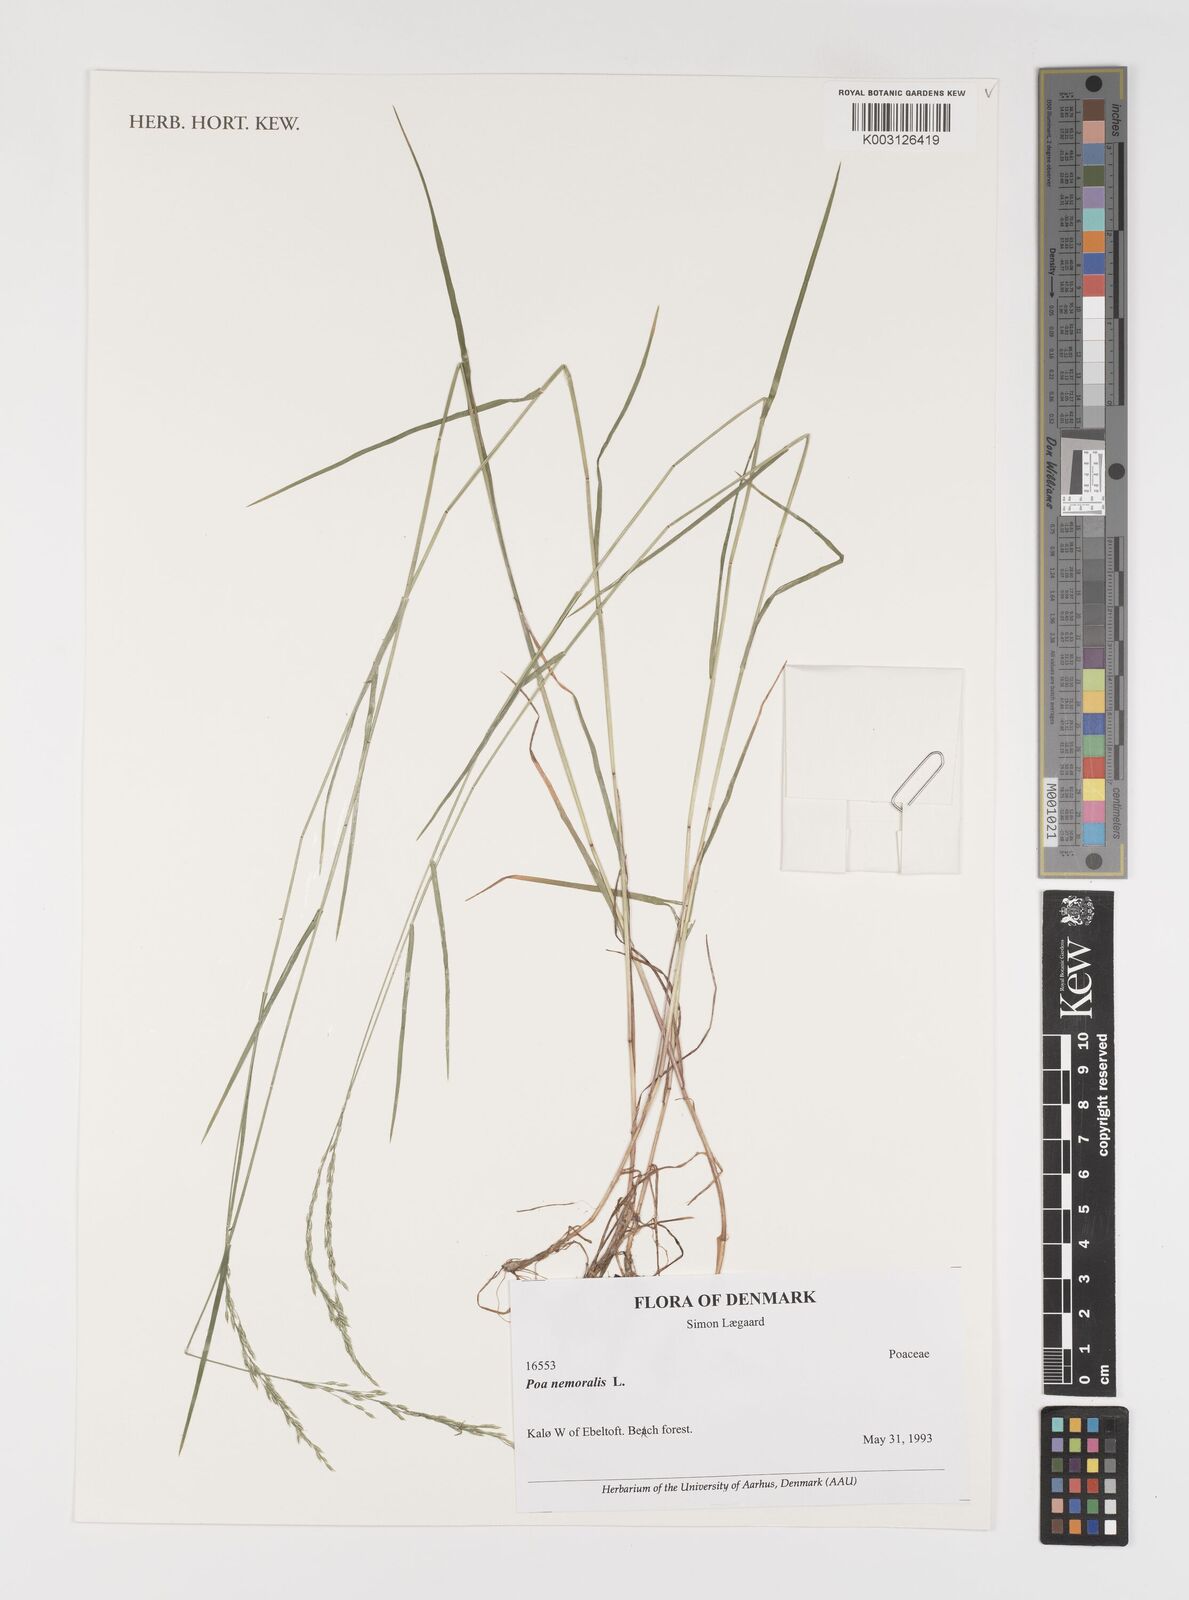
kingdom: Plantae
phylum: Tracheophyta
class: Liliopsida
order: Poales
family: Poaceae
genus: Poa
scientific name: Poa nemoralis
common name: Wood bluegrass
